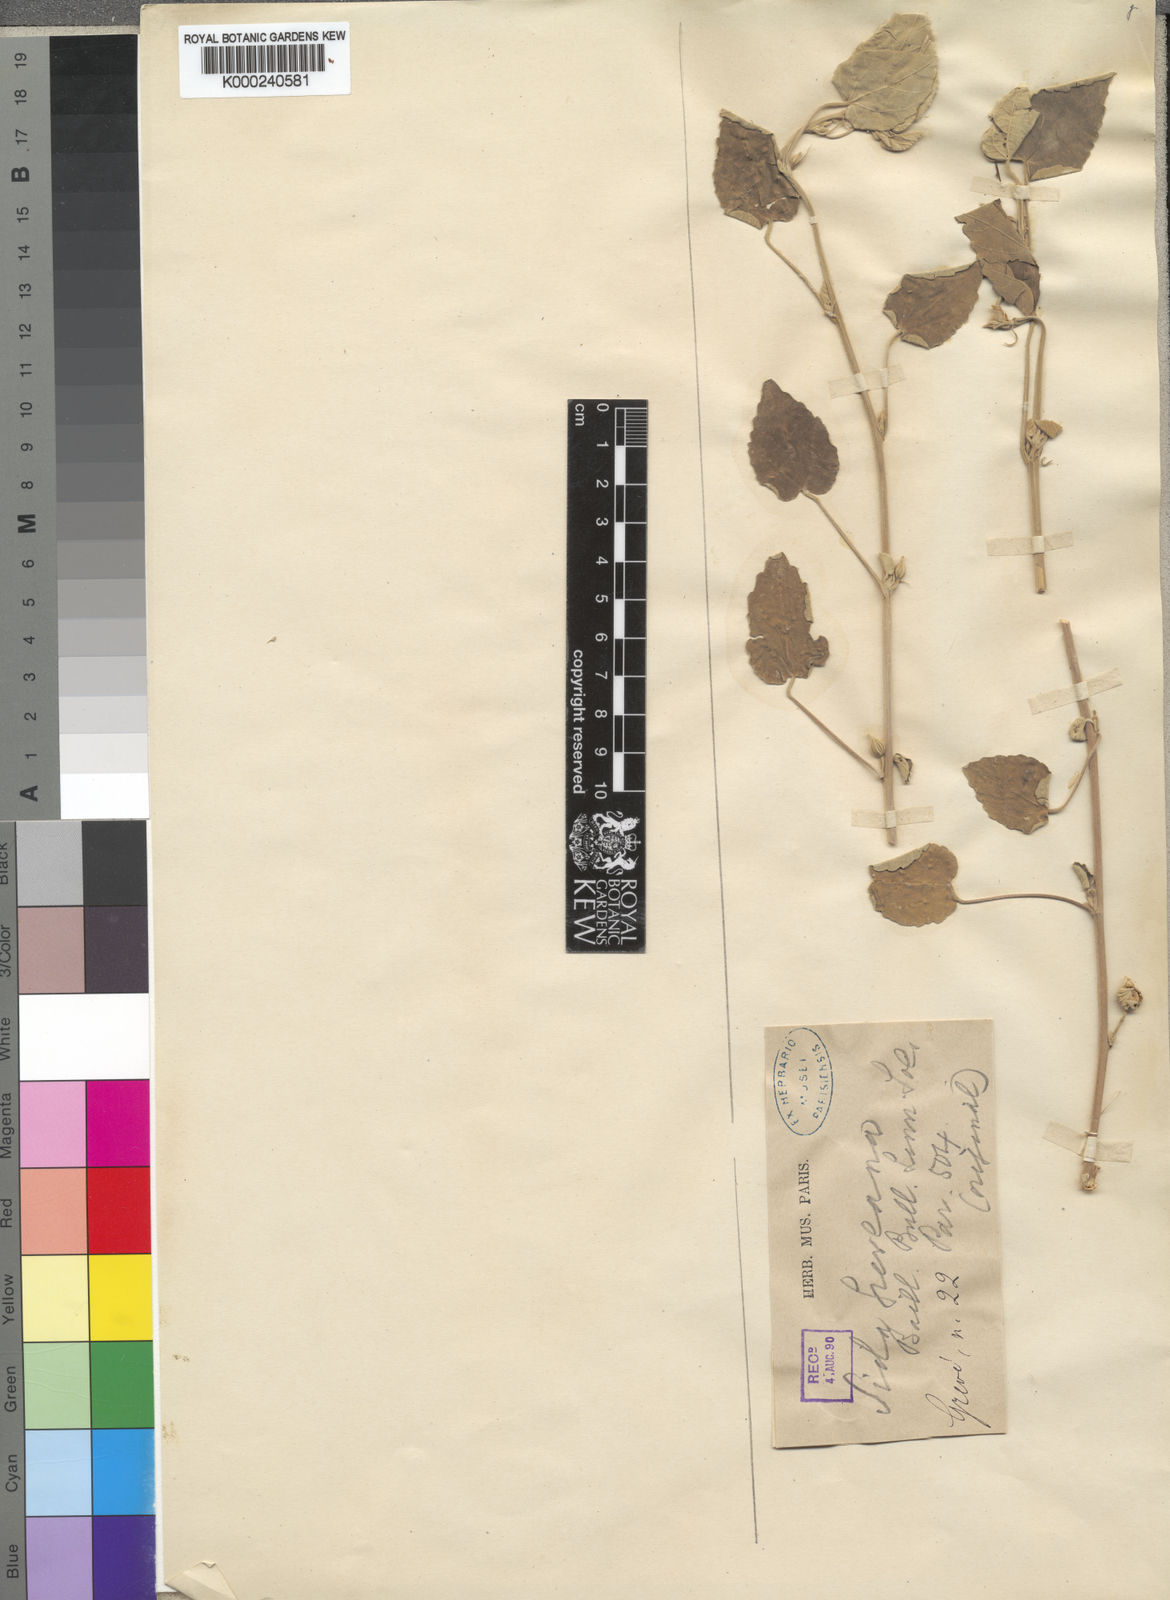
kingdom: Plantae
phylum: Tracheophyta
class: Magnoliopsida
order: Malvales
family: Malvaceae
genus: Abutilon
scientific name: Abutilon greveanum
